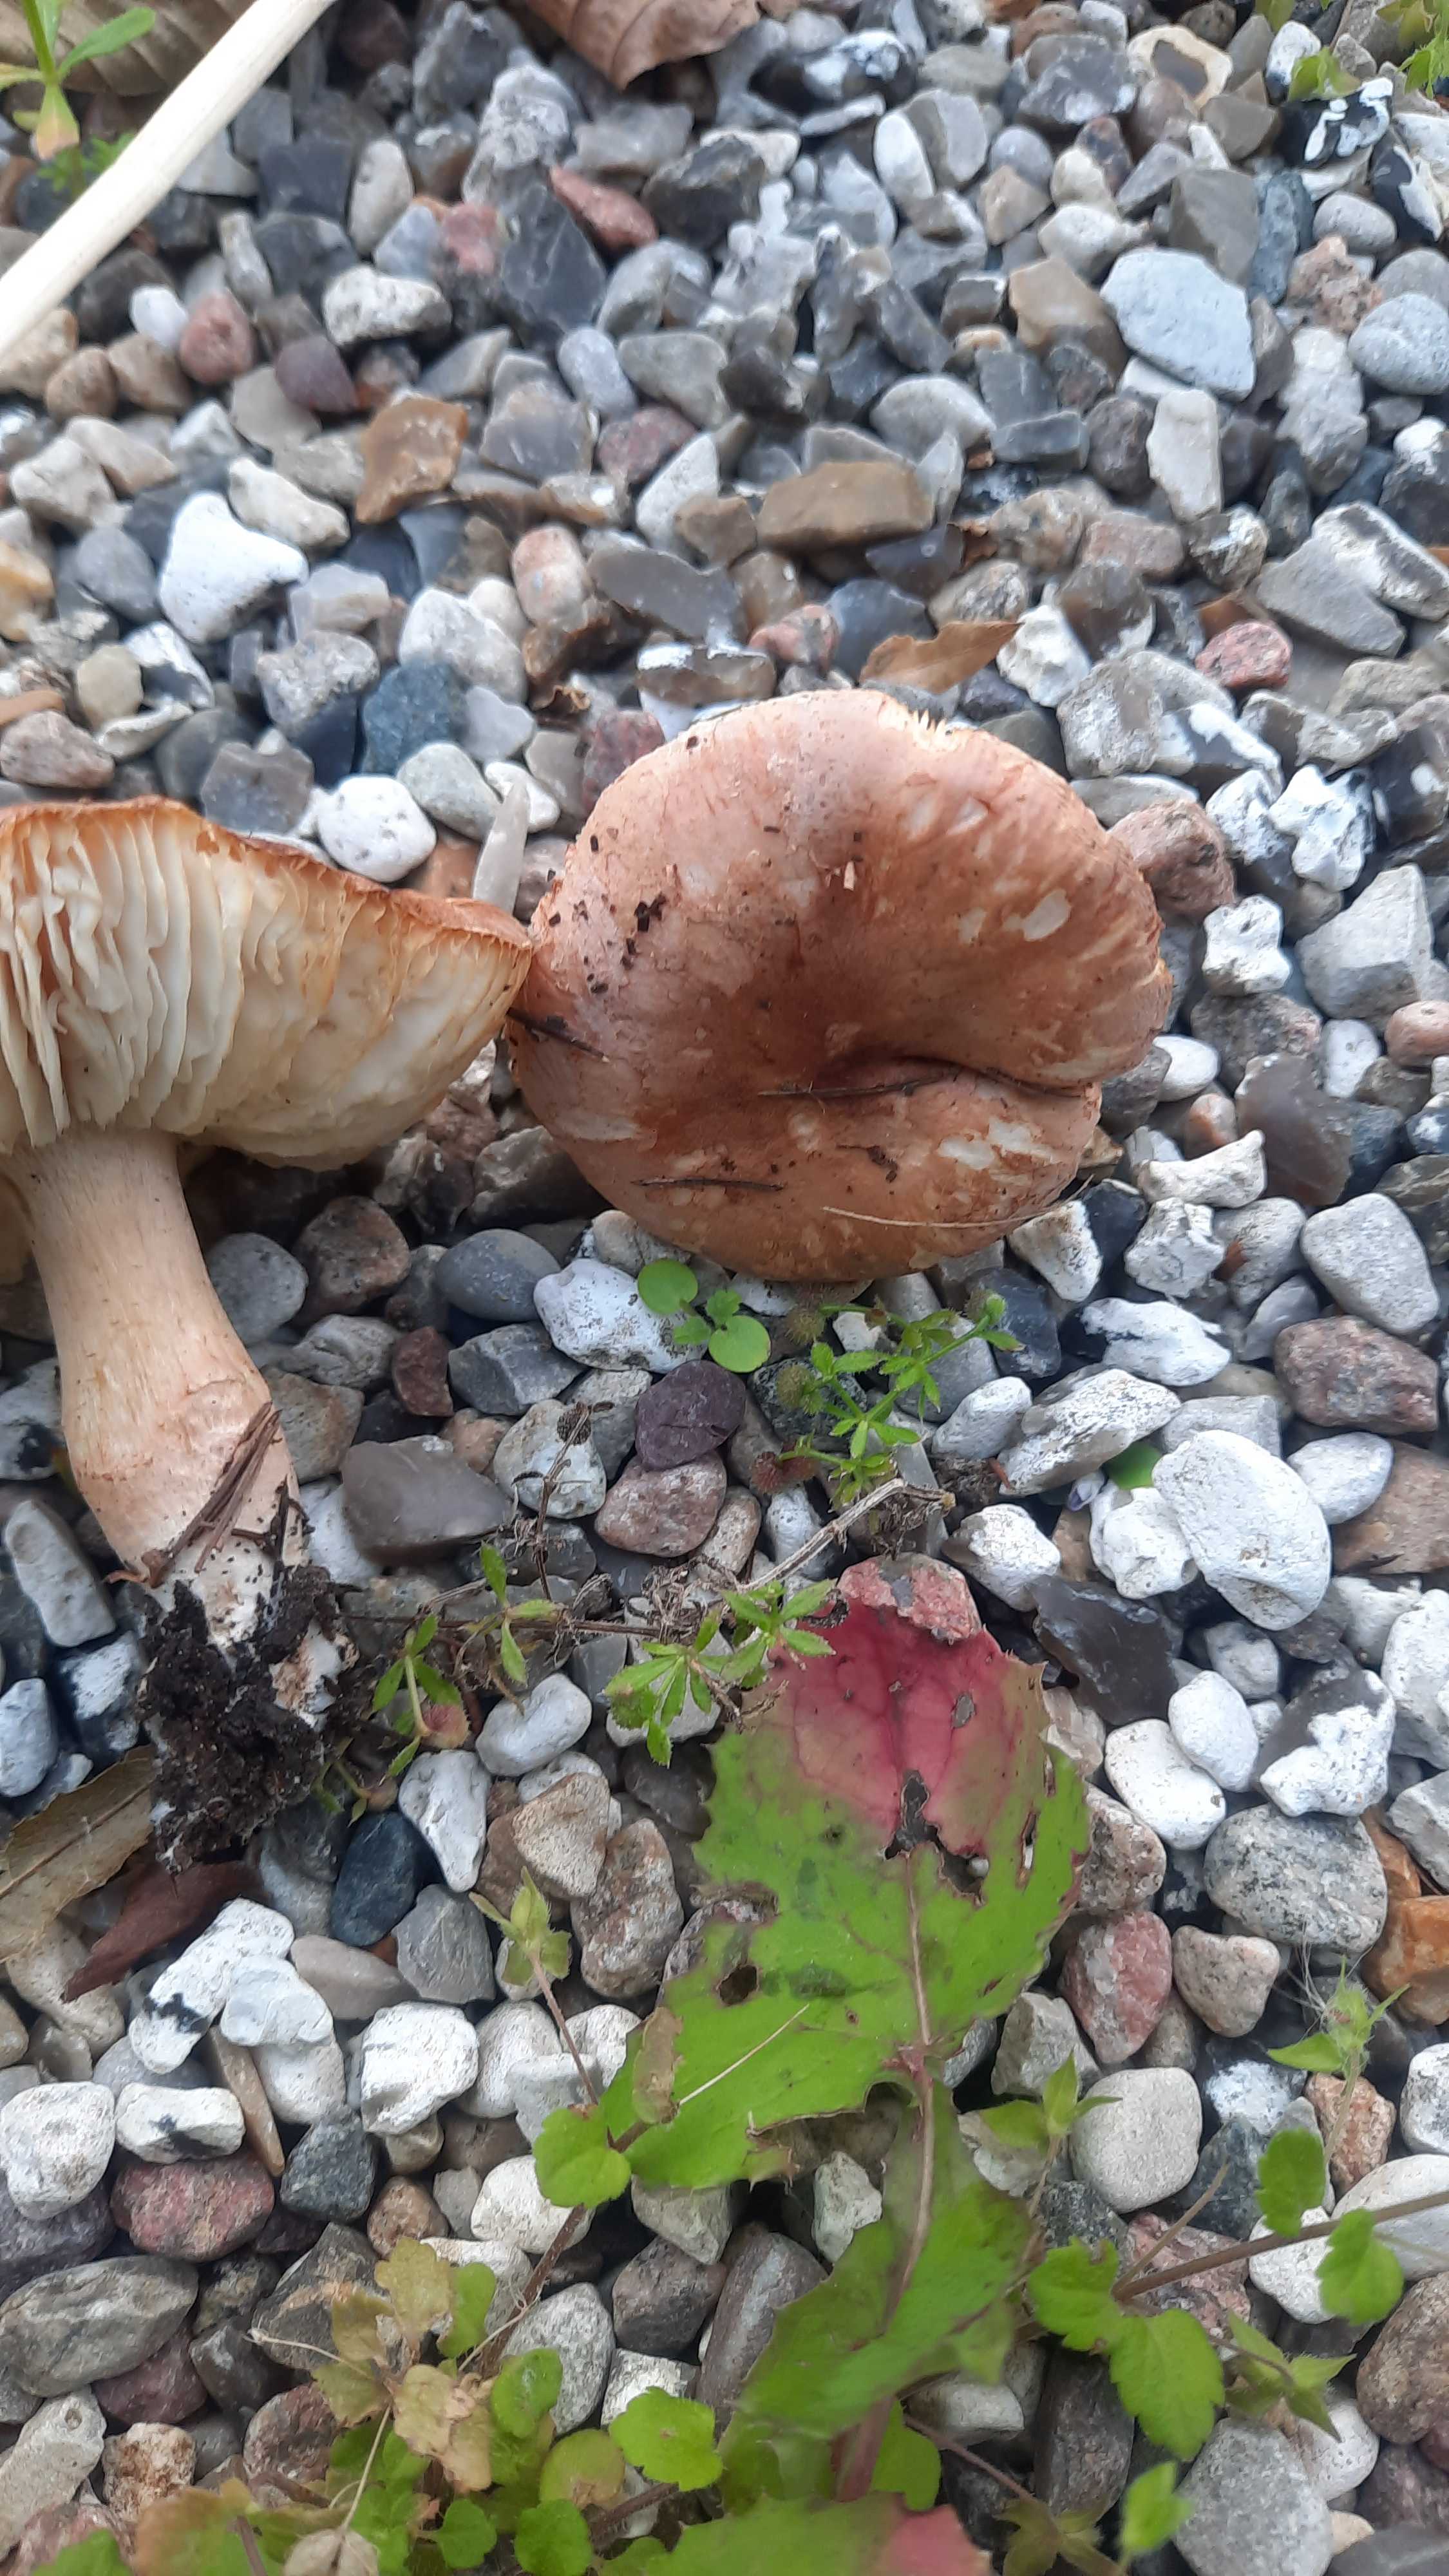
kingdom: Fungi
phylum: Basidiomycota
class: Agaricomycetes
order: Agaricales
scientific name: Agaricales
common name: champignonordenen
